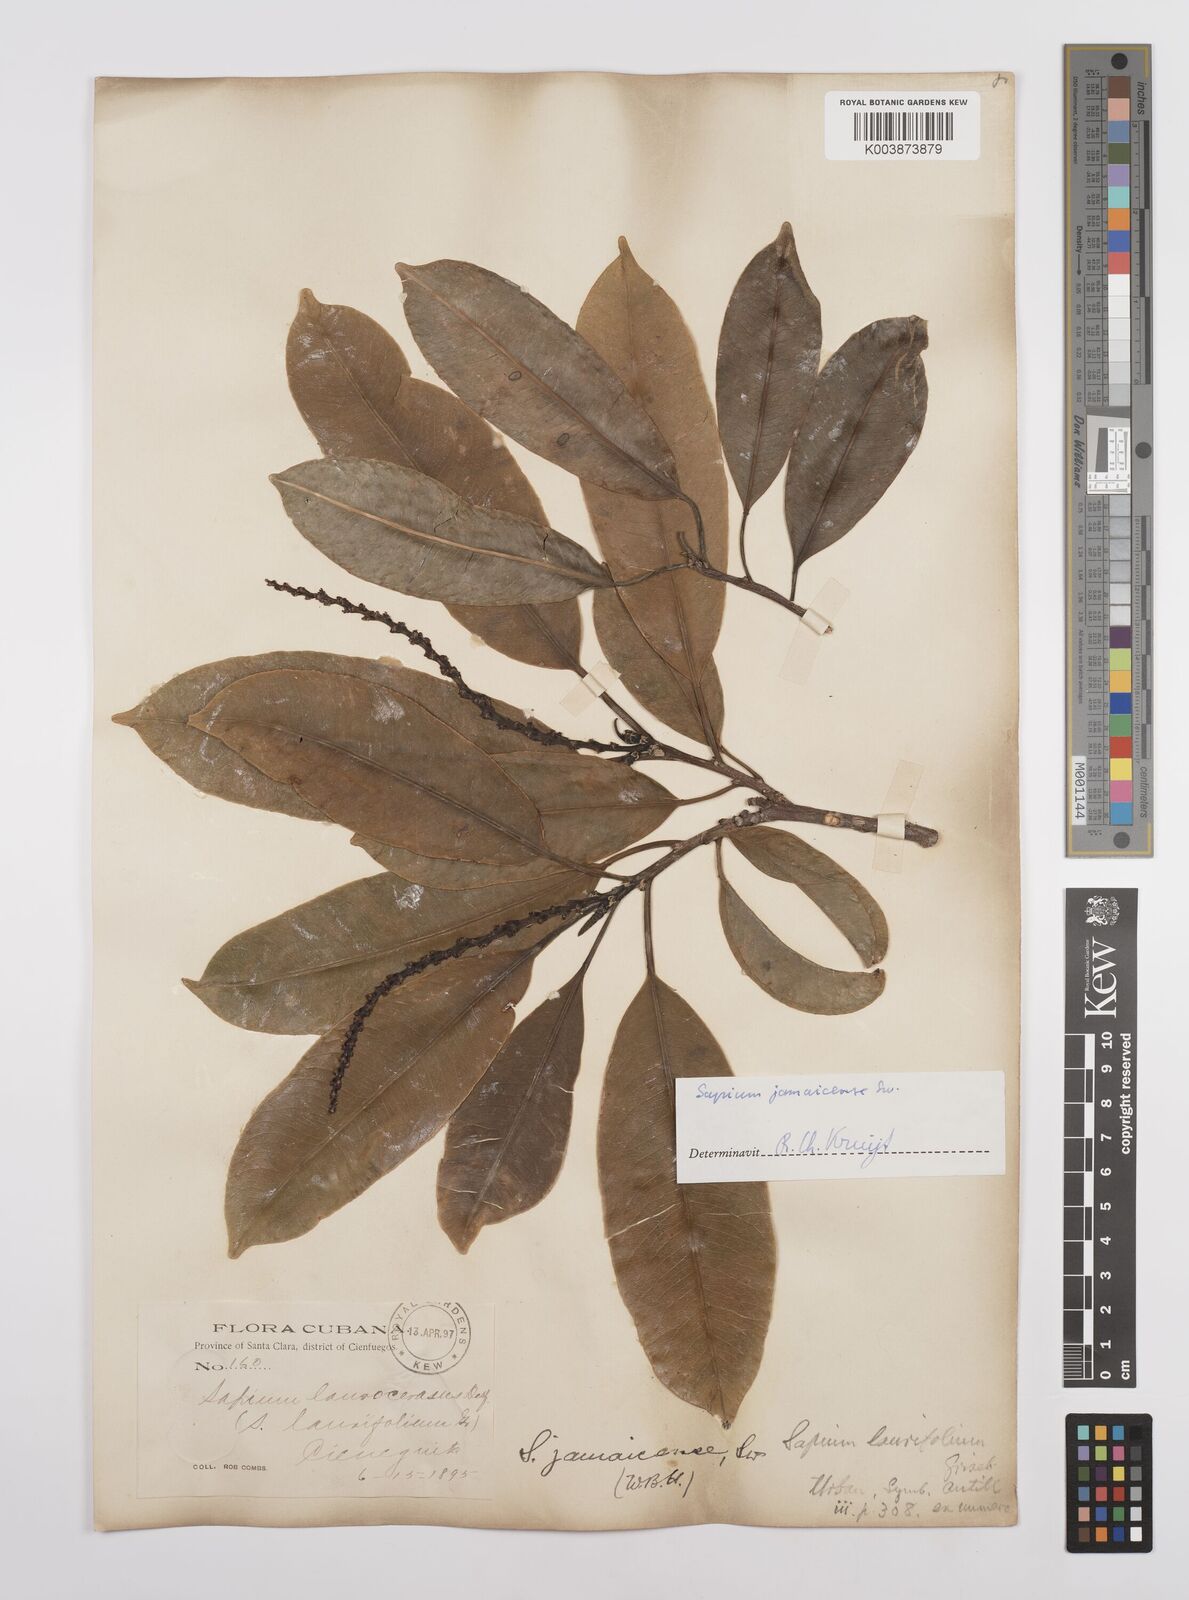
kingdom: Plantae
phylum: Tracheophyta
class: Magnoliopsida
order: Malpighiales
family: Euphorbiaceae
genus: Sapium
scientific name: Sapium glandulosum
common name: Milktree
